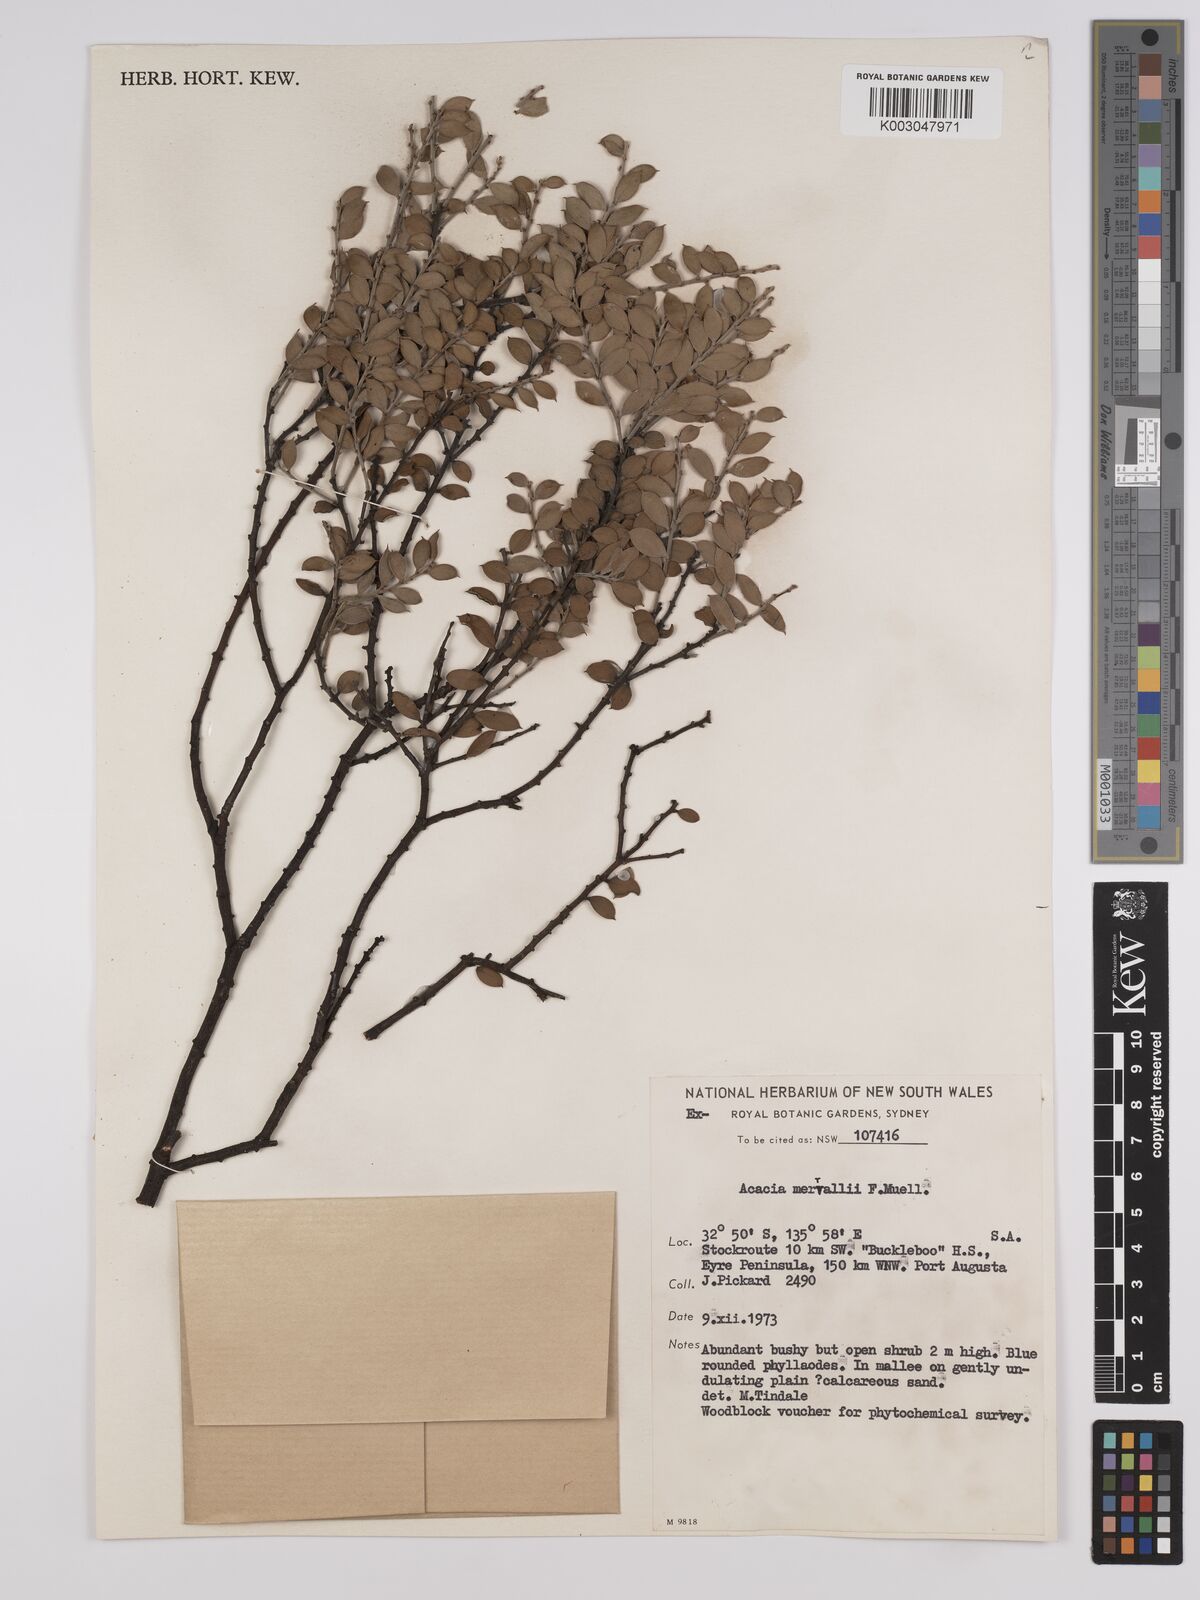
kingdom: Plantae
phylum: Tracheophyta
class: Magnoliopsida
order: Fabales
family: Fabaceae
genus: Acacia
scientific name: Acacia merrallii
